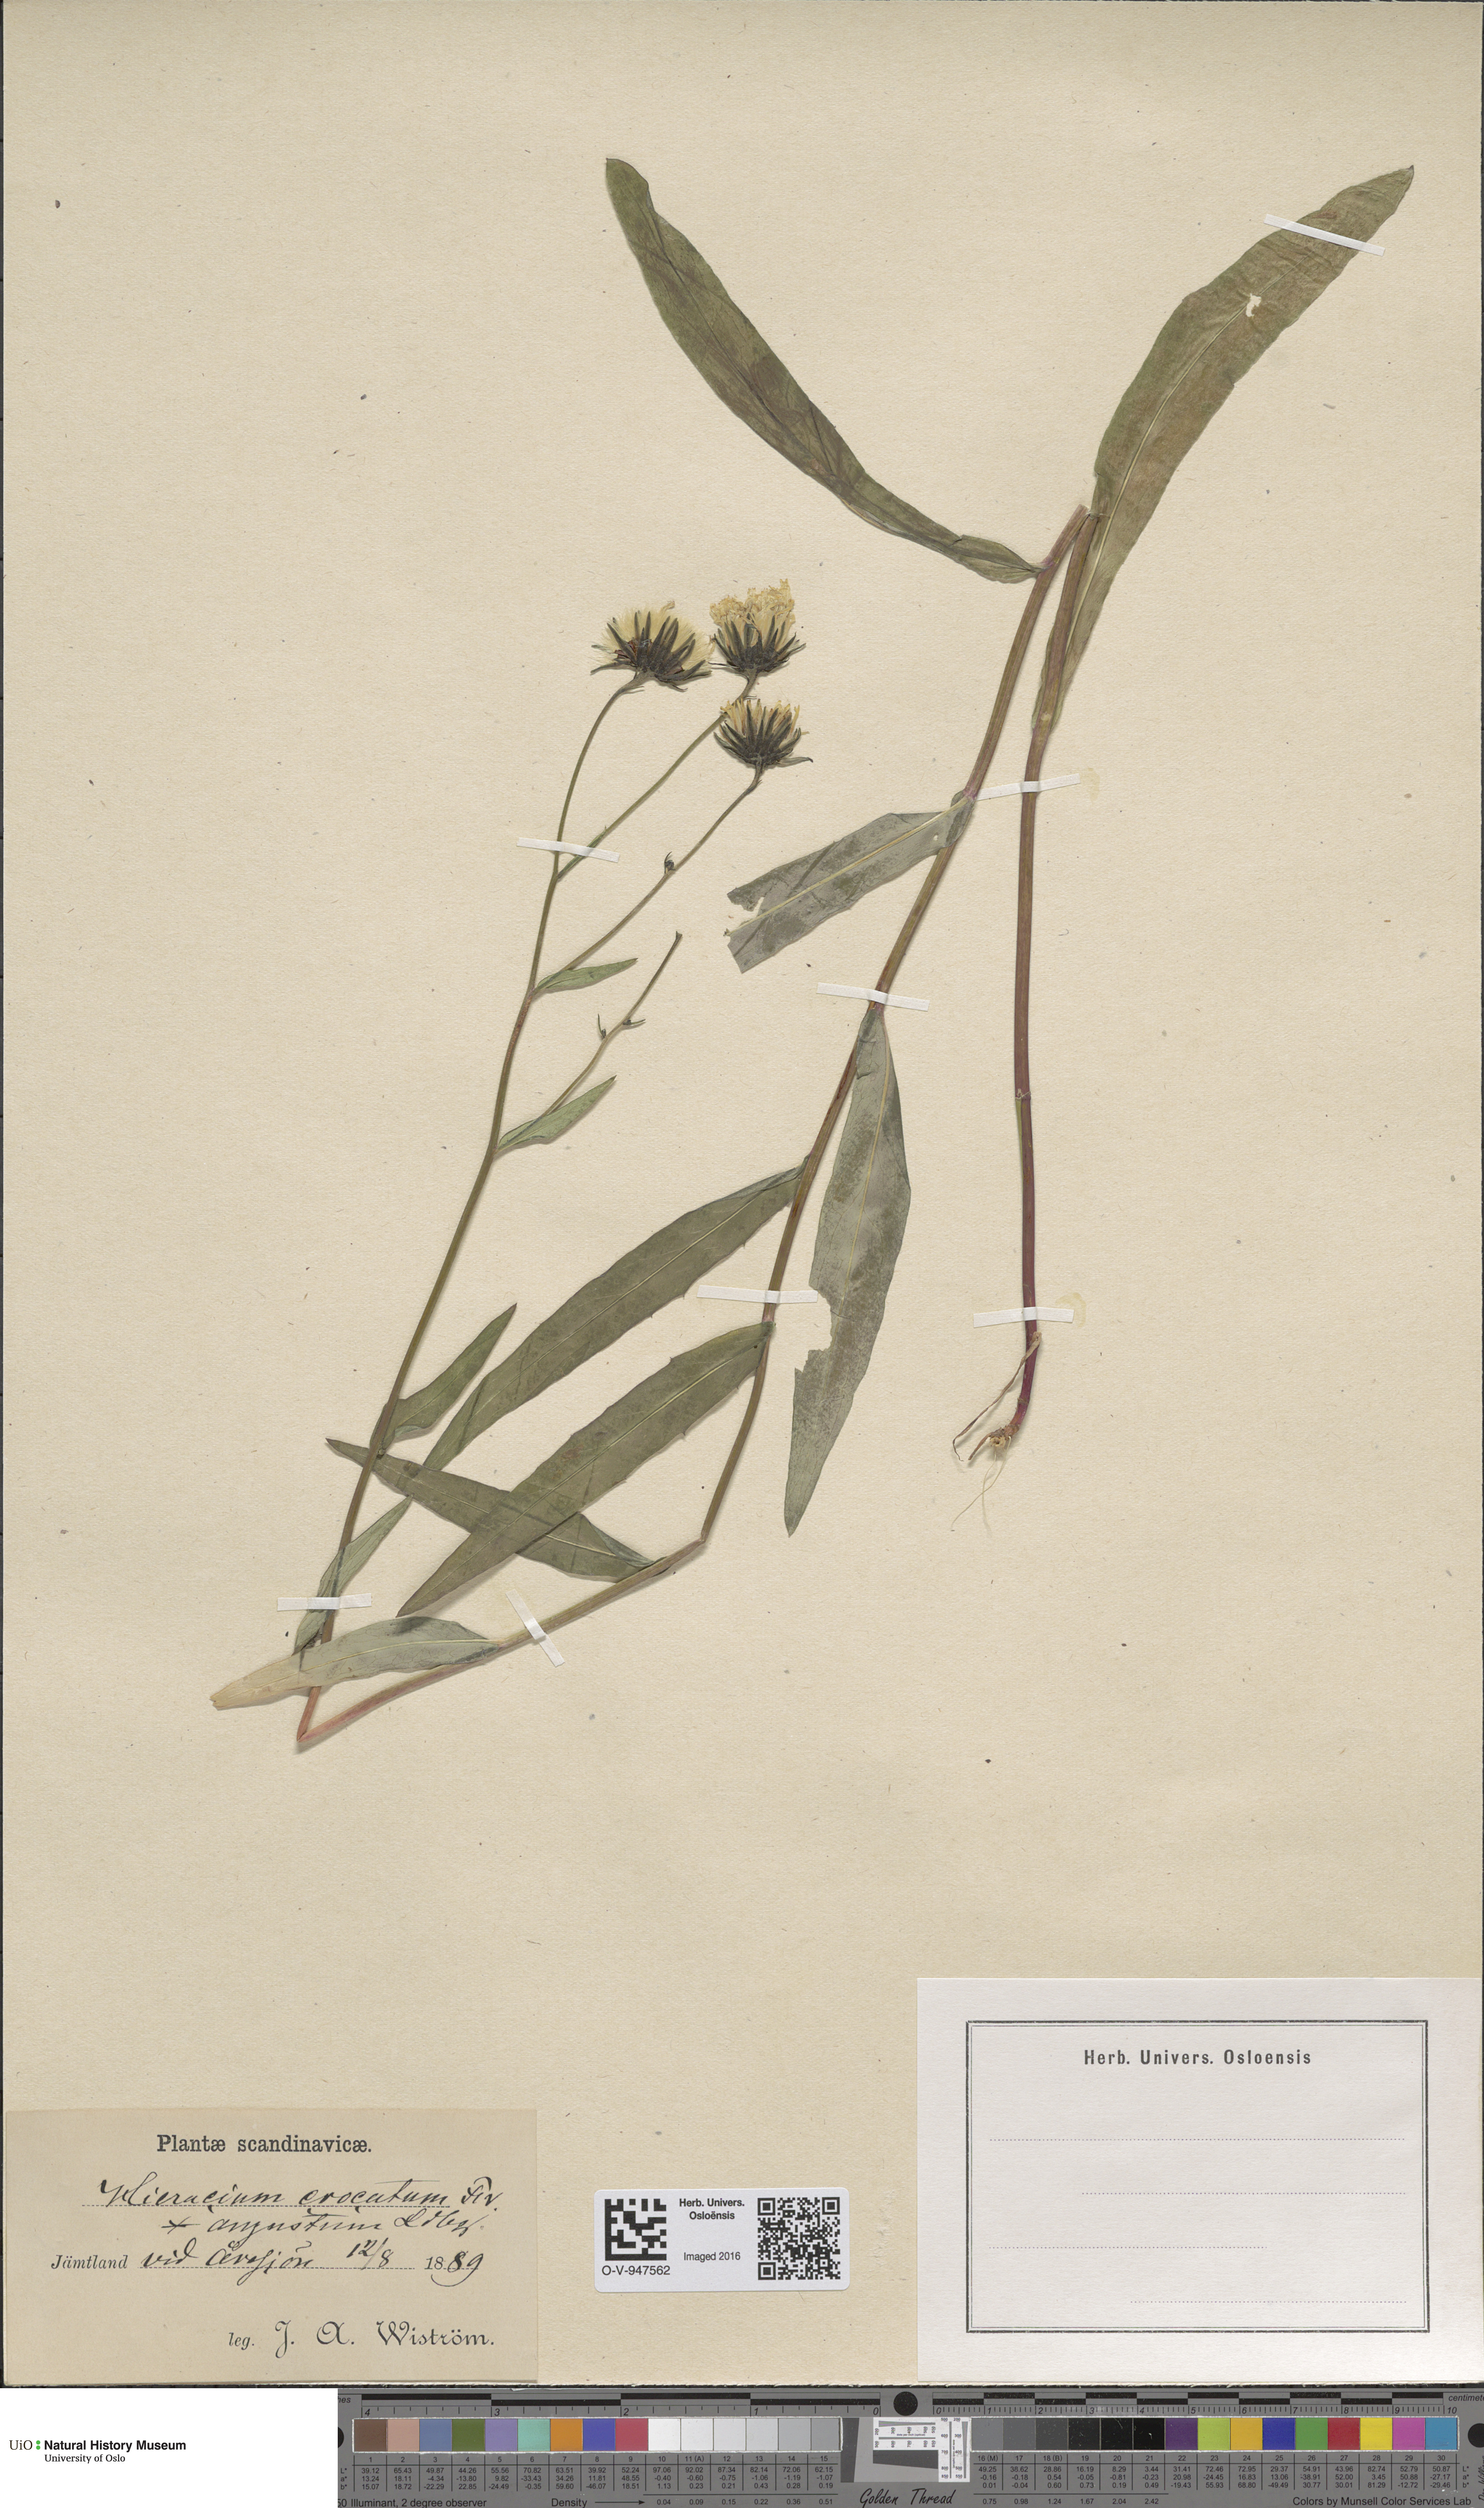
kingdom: Plantae
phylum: Tracheophyta
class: Magnoliopsida
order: Asterales
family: Asteraceae
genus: Hieracium
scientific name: Hieracium angustum
